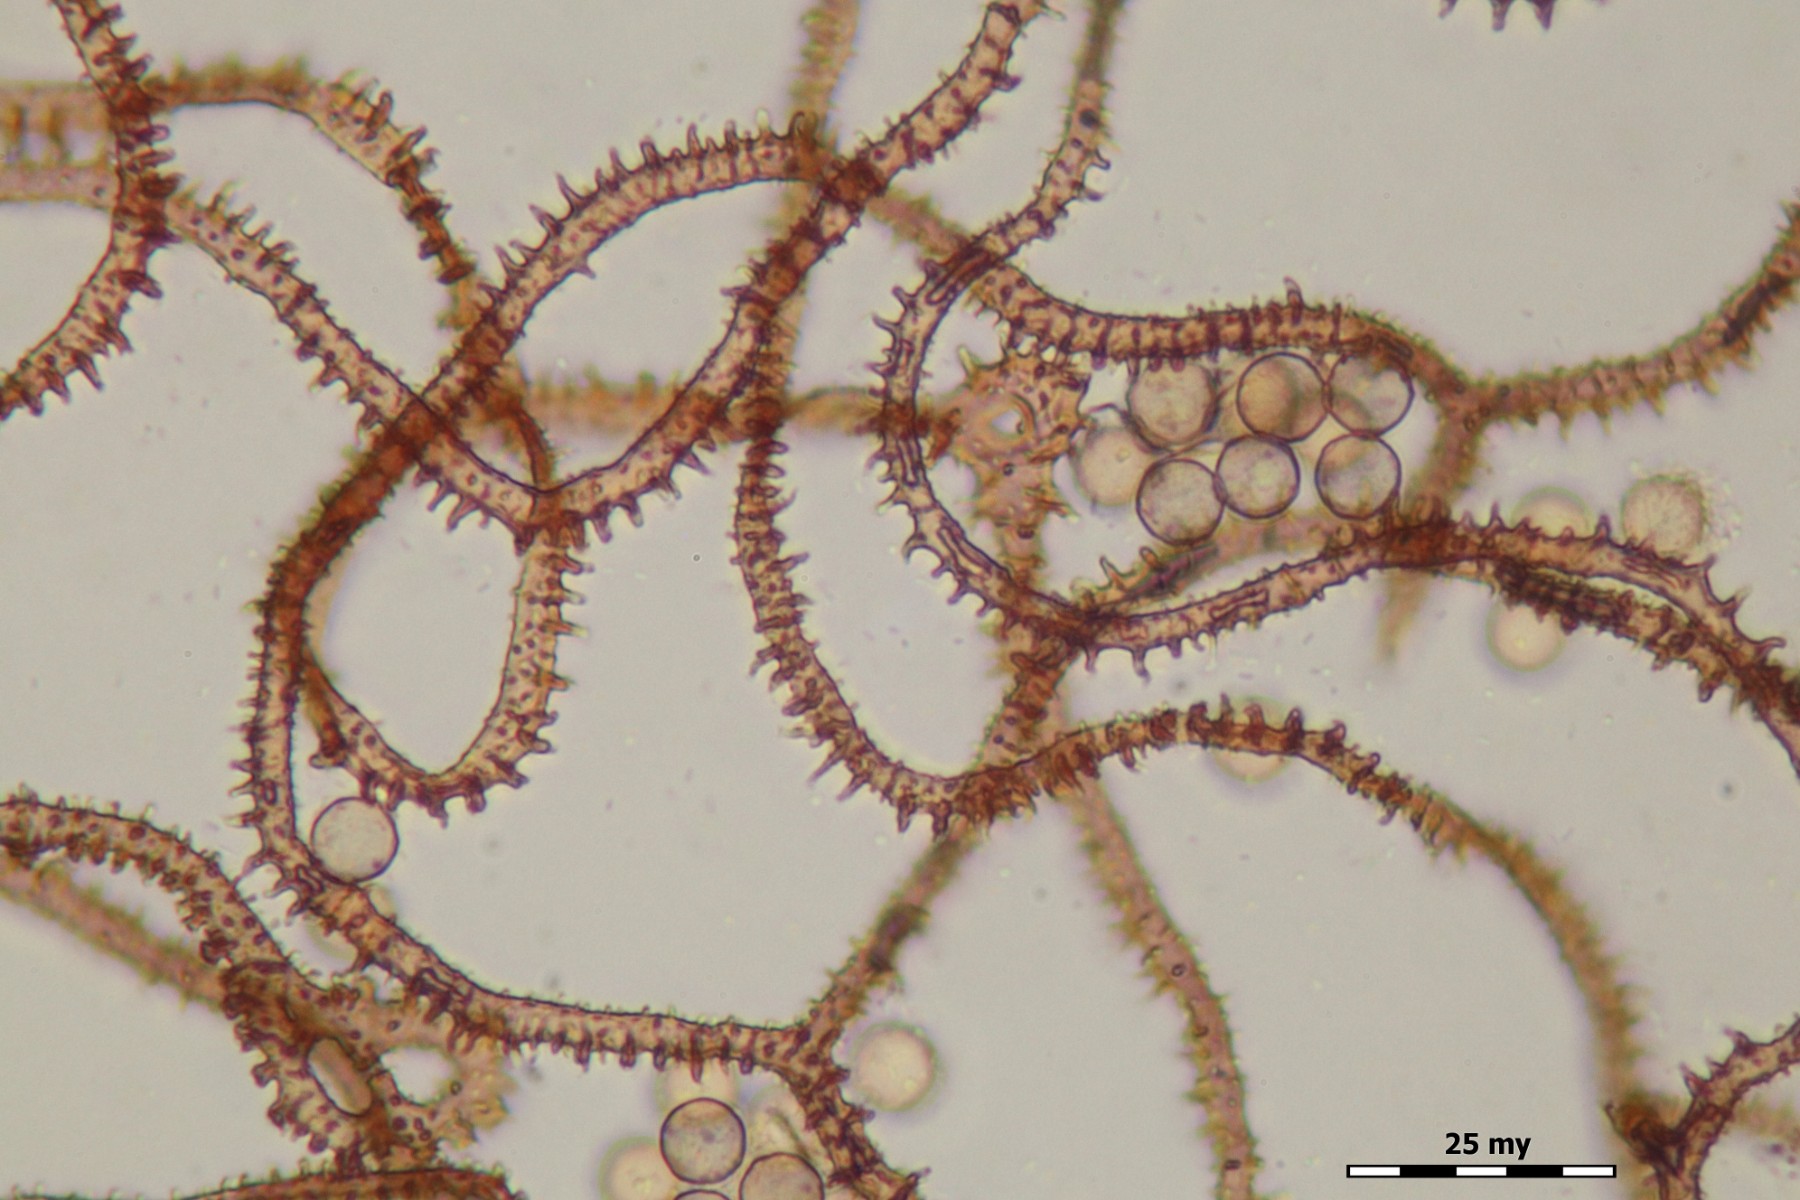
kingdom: Protozoa
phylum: Mycetozoa
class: Myxomycetes
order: Trichiales
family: Arcyriaceae
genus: Arcyria
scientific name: Arcyria affinis
